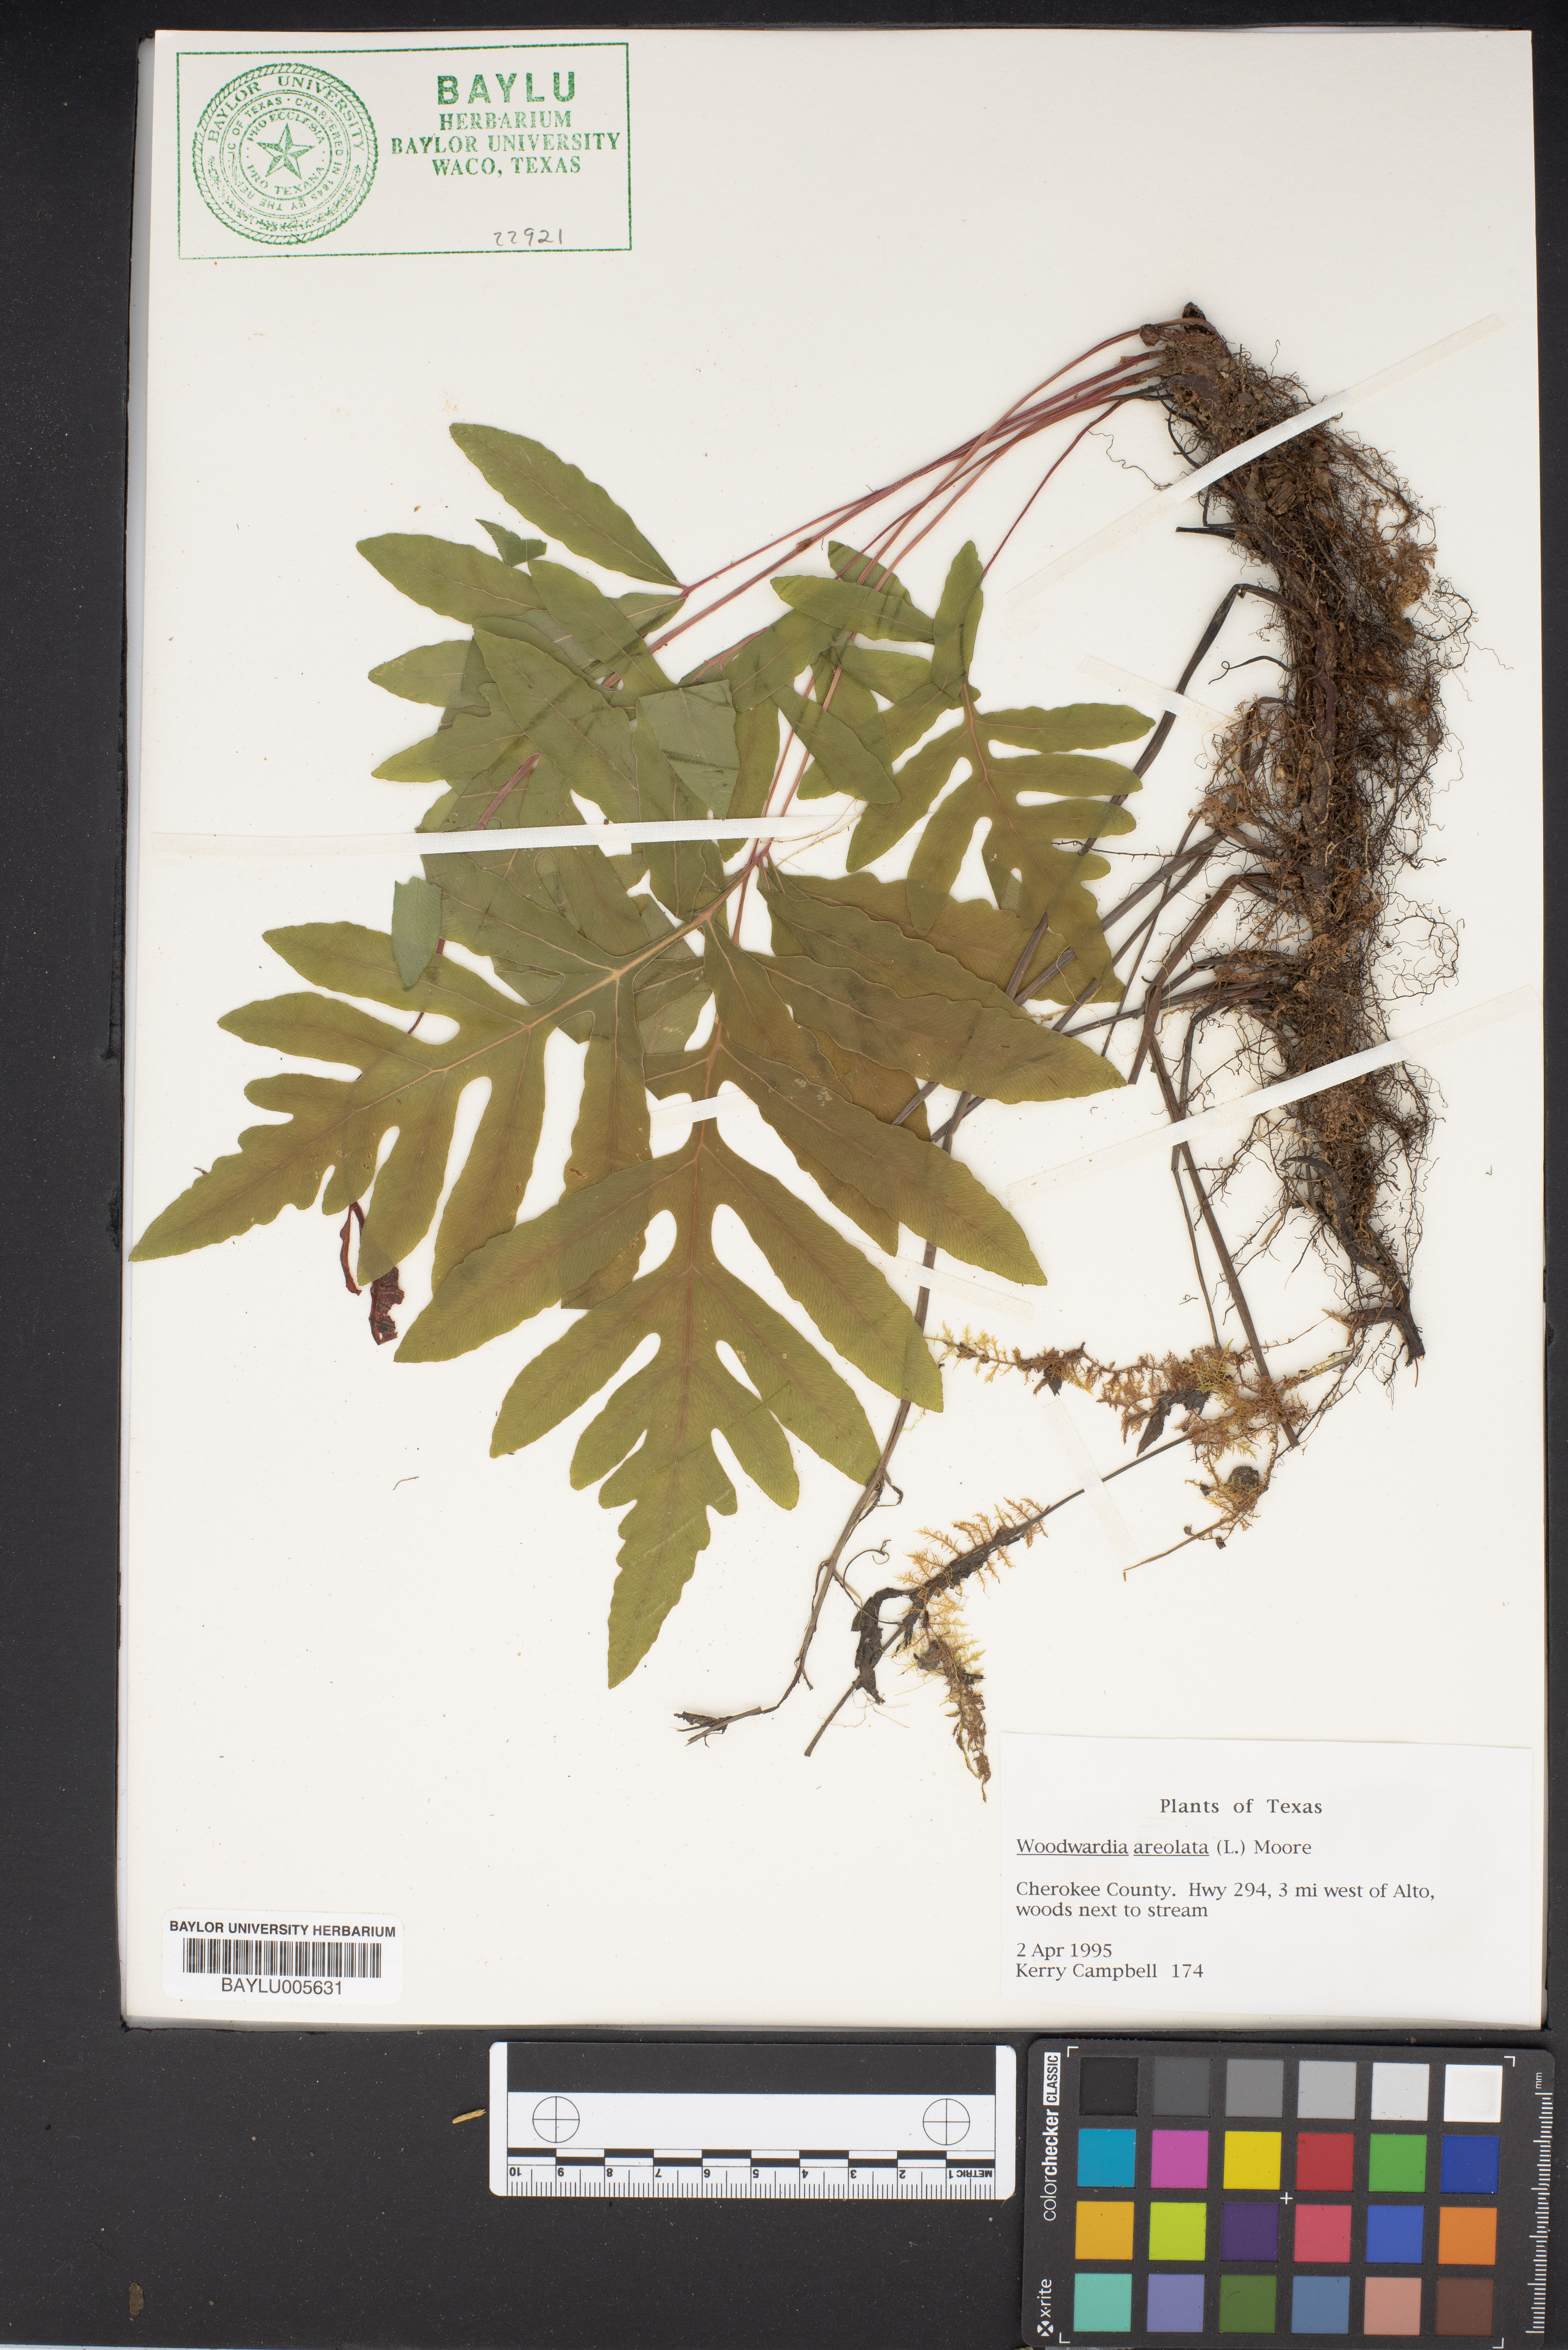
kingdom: Plantae
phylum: Tracheophyta
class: Polypodiopsida
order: Polypodiales
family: Blechnaceae
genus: Lorinseria
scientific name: Lorinseria areolata
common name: Dwarf chain fern
